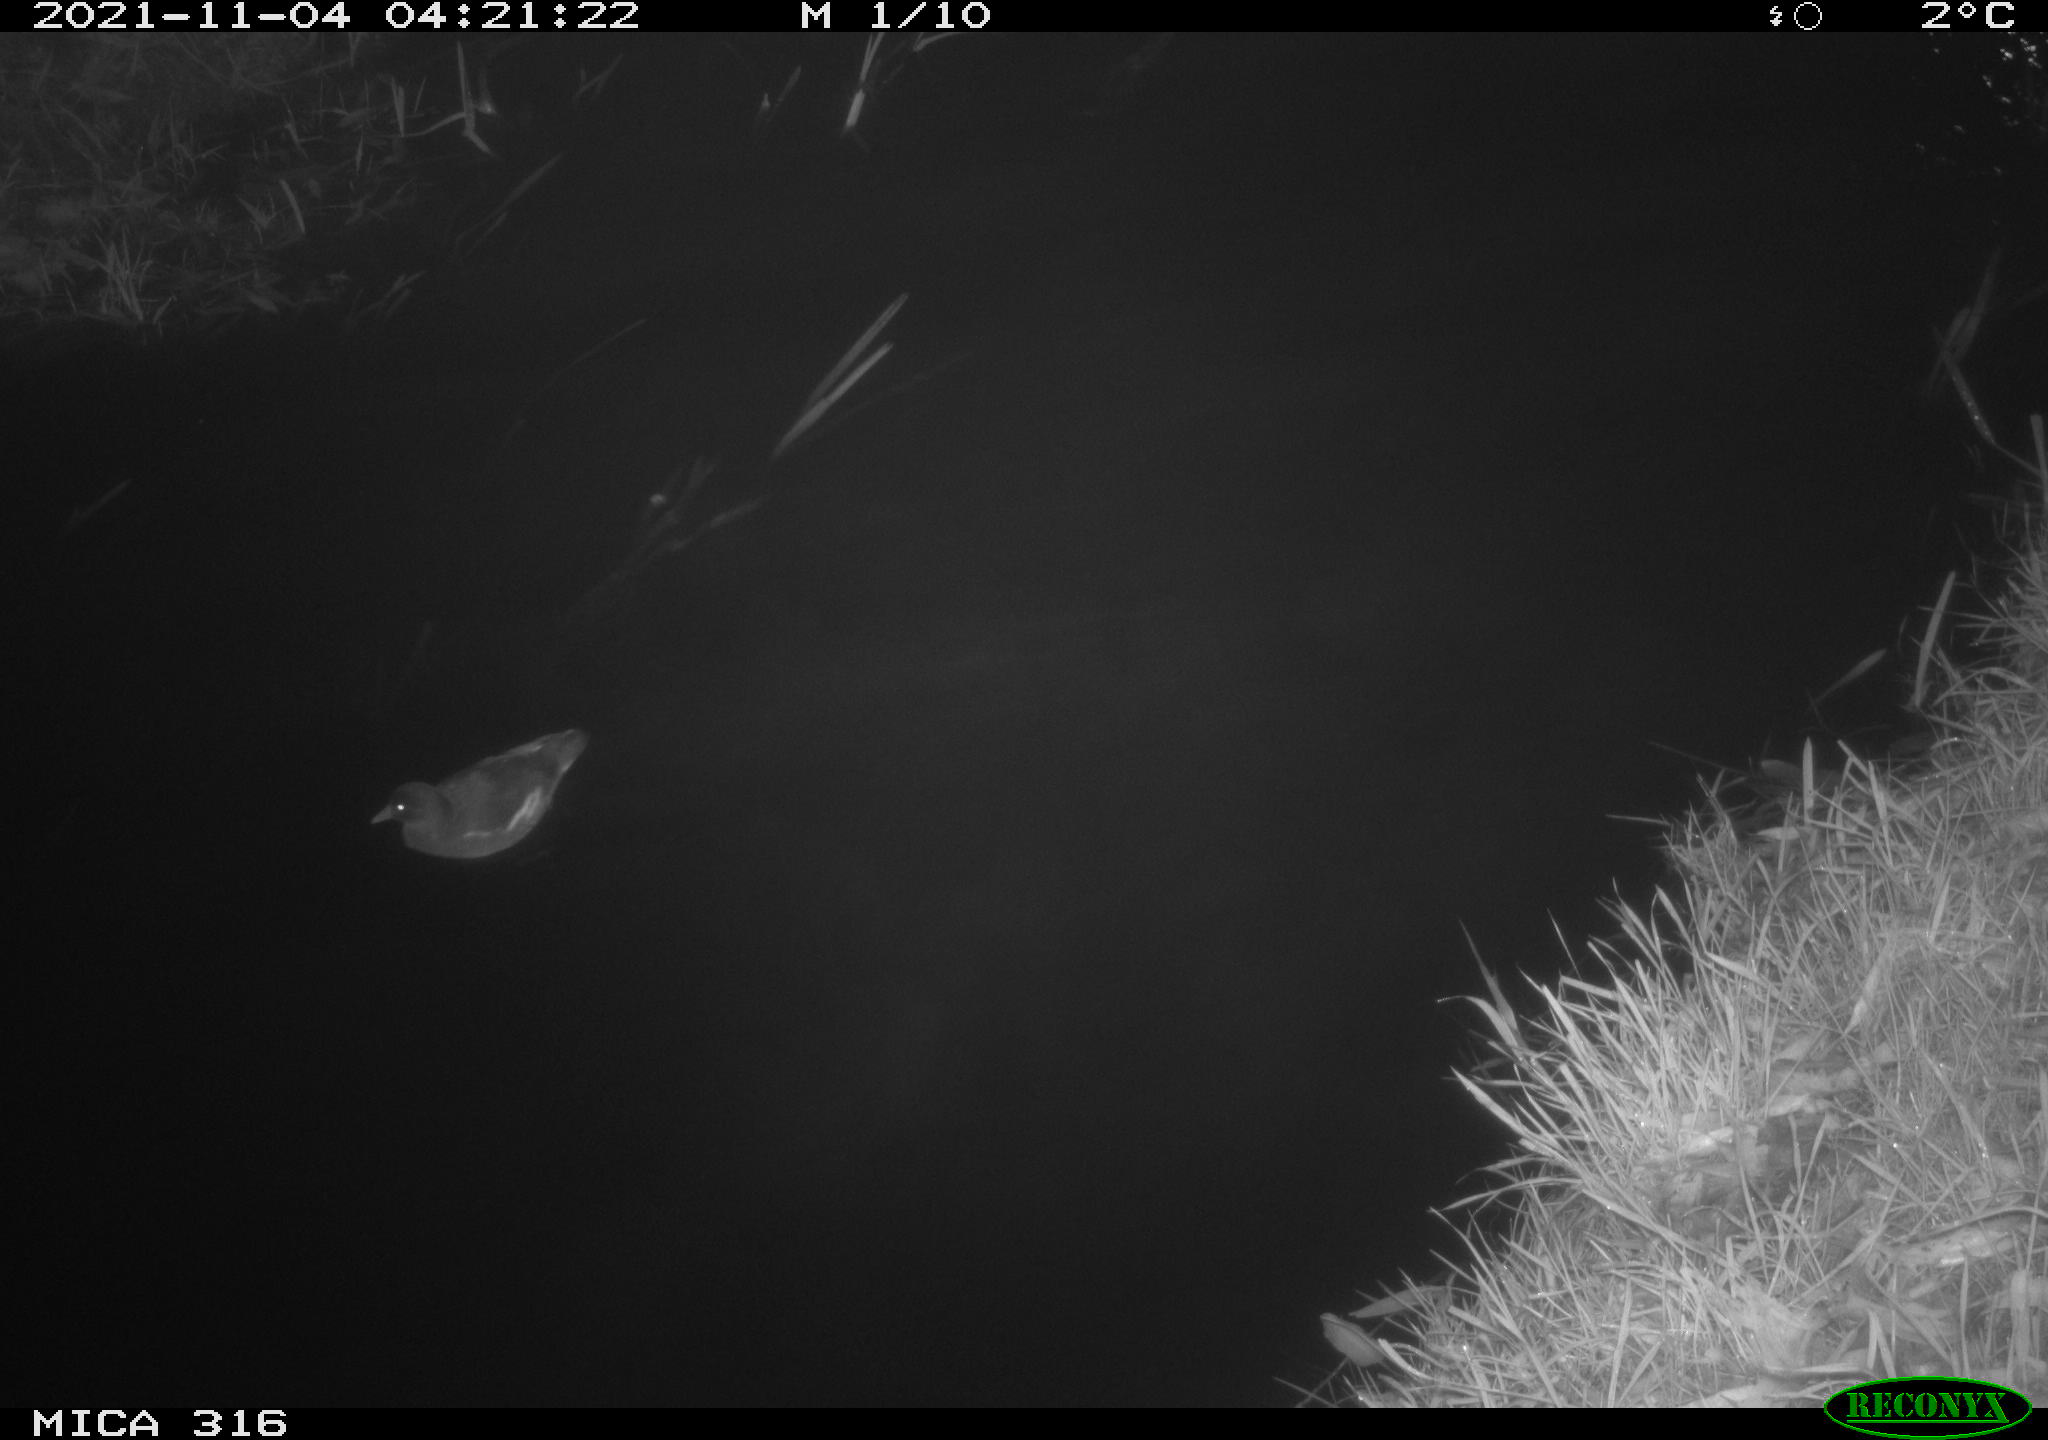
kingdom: Animalia
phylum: Chordata
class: Aves
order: Gruiformes
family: Rallidae
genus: Gallinula
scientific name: Gallinula chloropus
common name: Common moorhen
